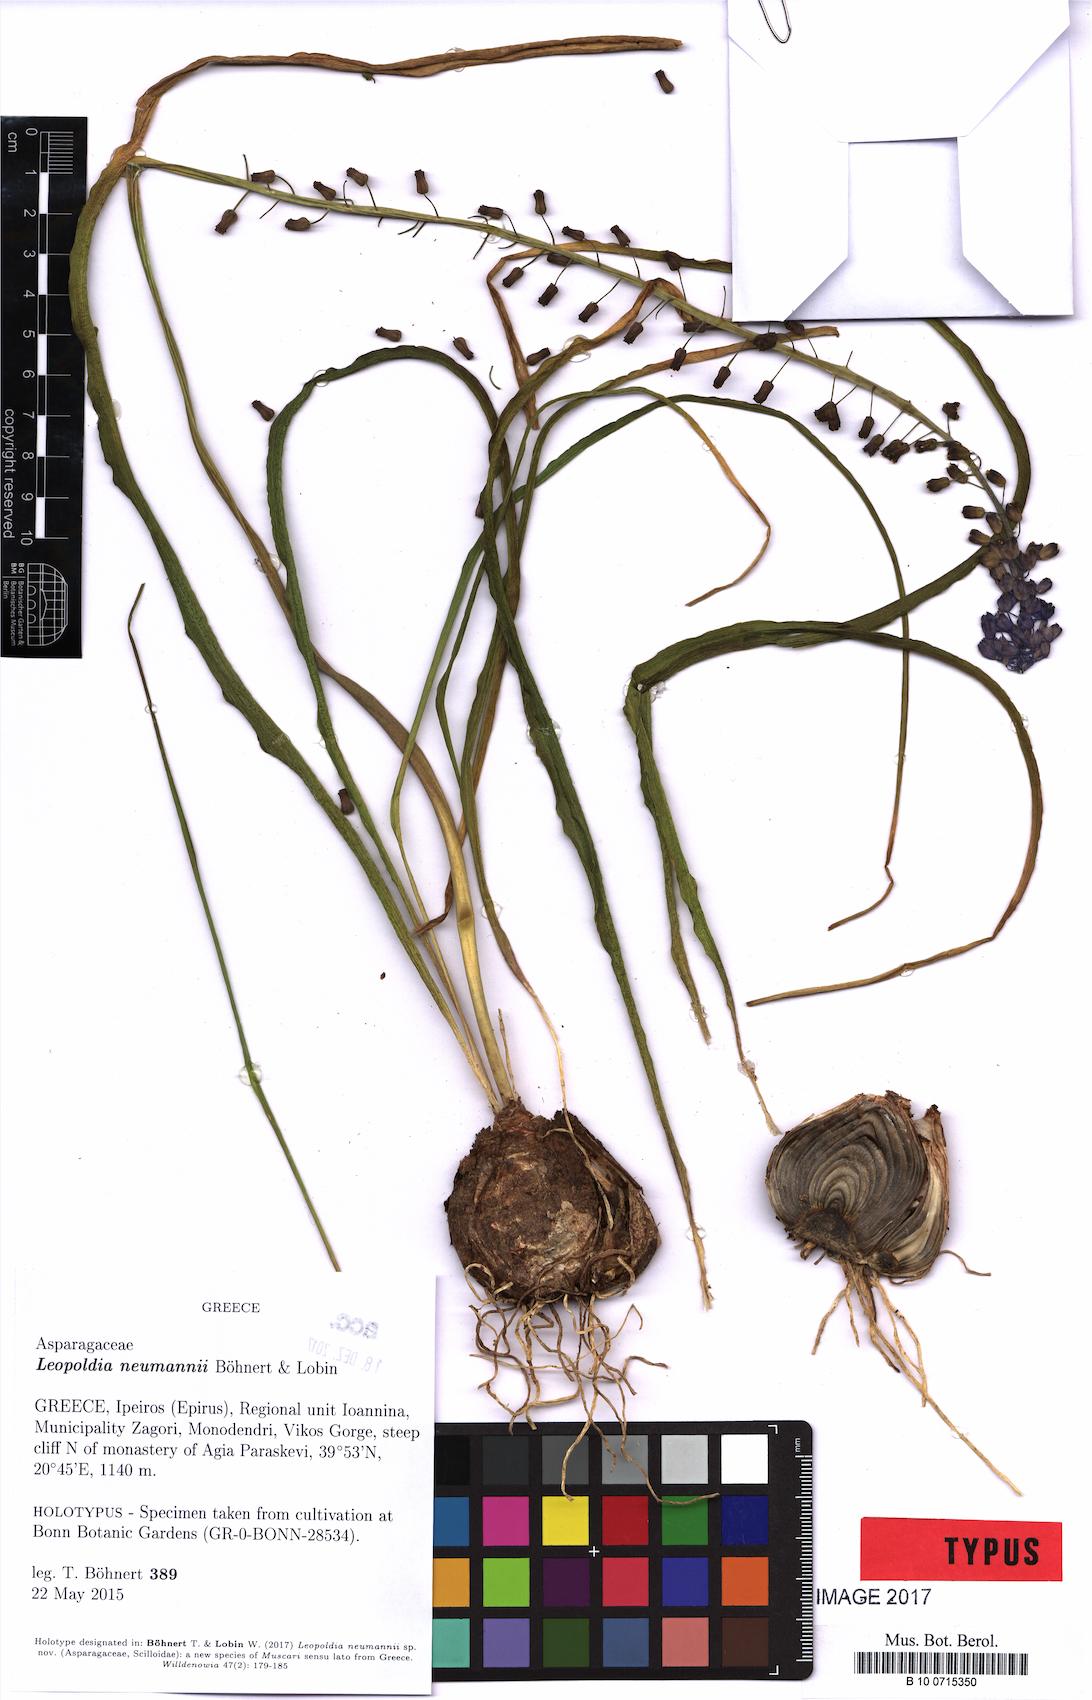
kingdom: Plantae
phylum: Tracheophyta
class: Liliopsida
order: Asparagales
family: Asparagaceae
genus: Muscari
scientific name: Muscari Leopoldia neumannii
